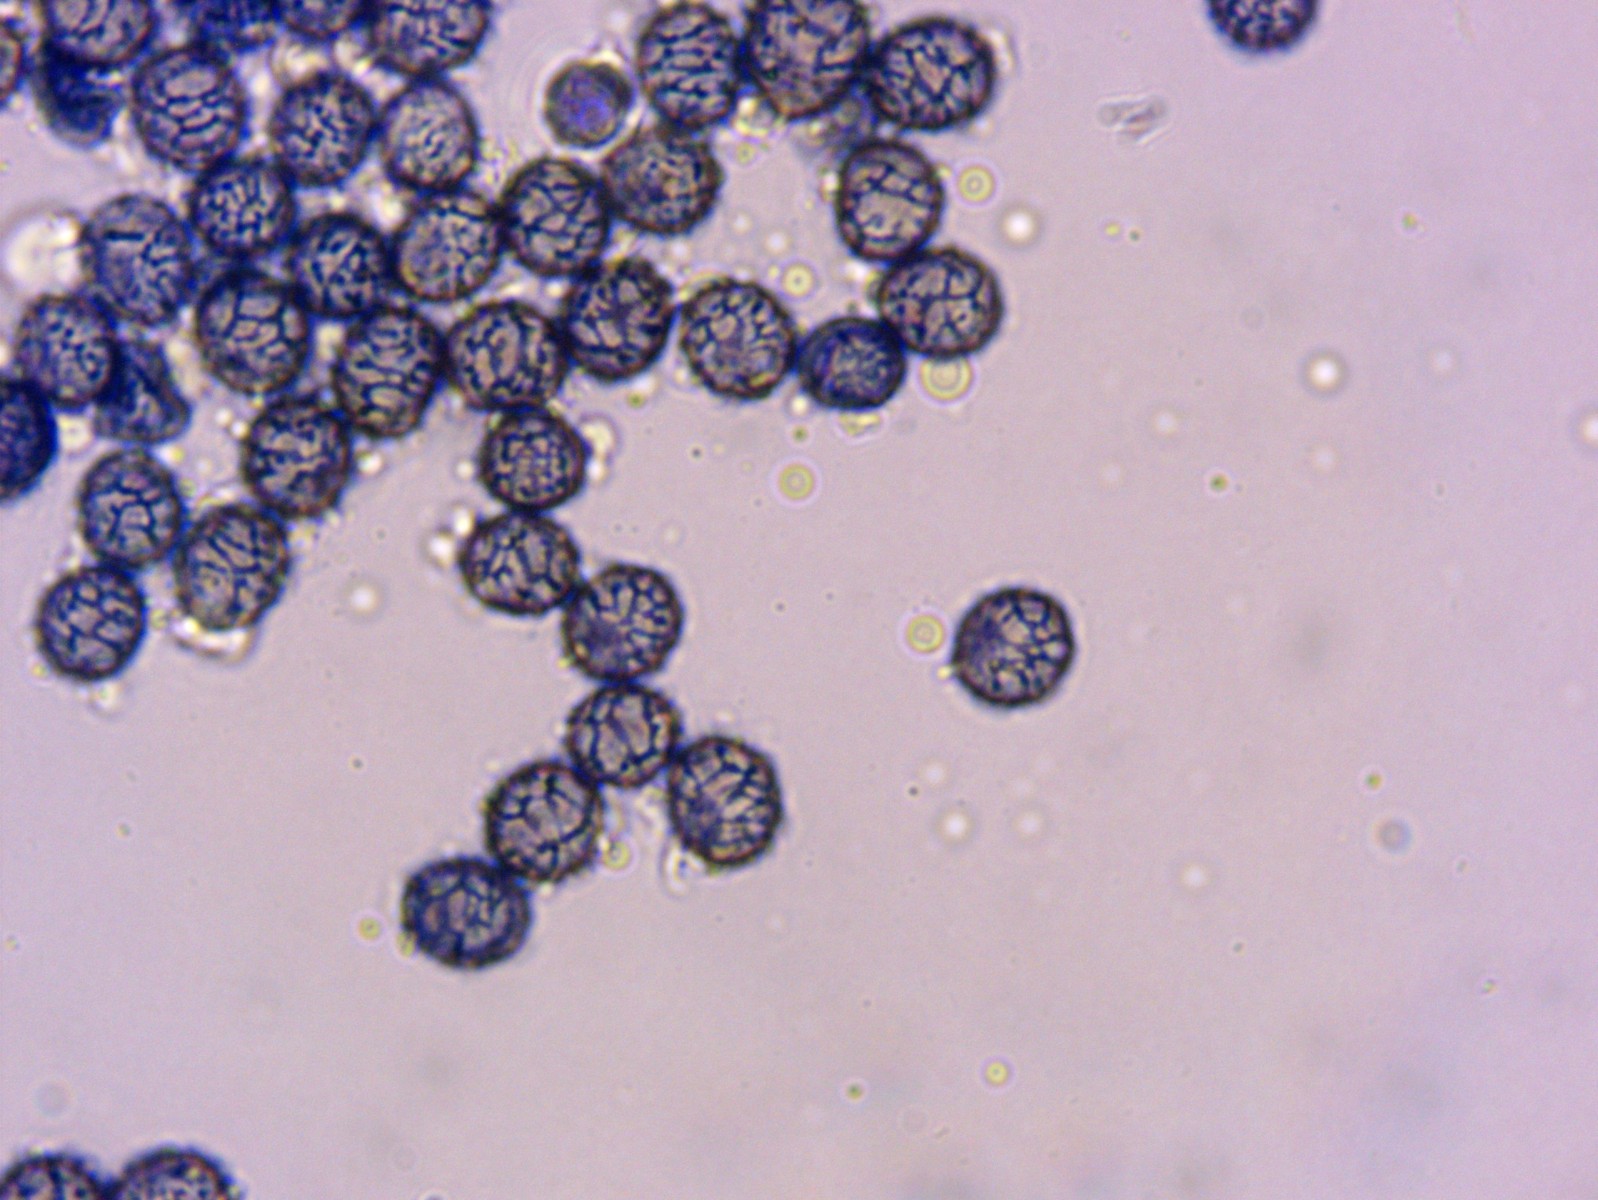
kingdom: Fungi
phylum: Basidiomycota
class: Agaricomycetes
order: Russulales
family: Russulaceae
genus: Russula
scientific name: Russula atrorubens
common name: sortrød skørhat
